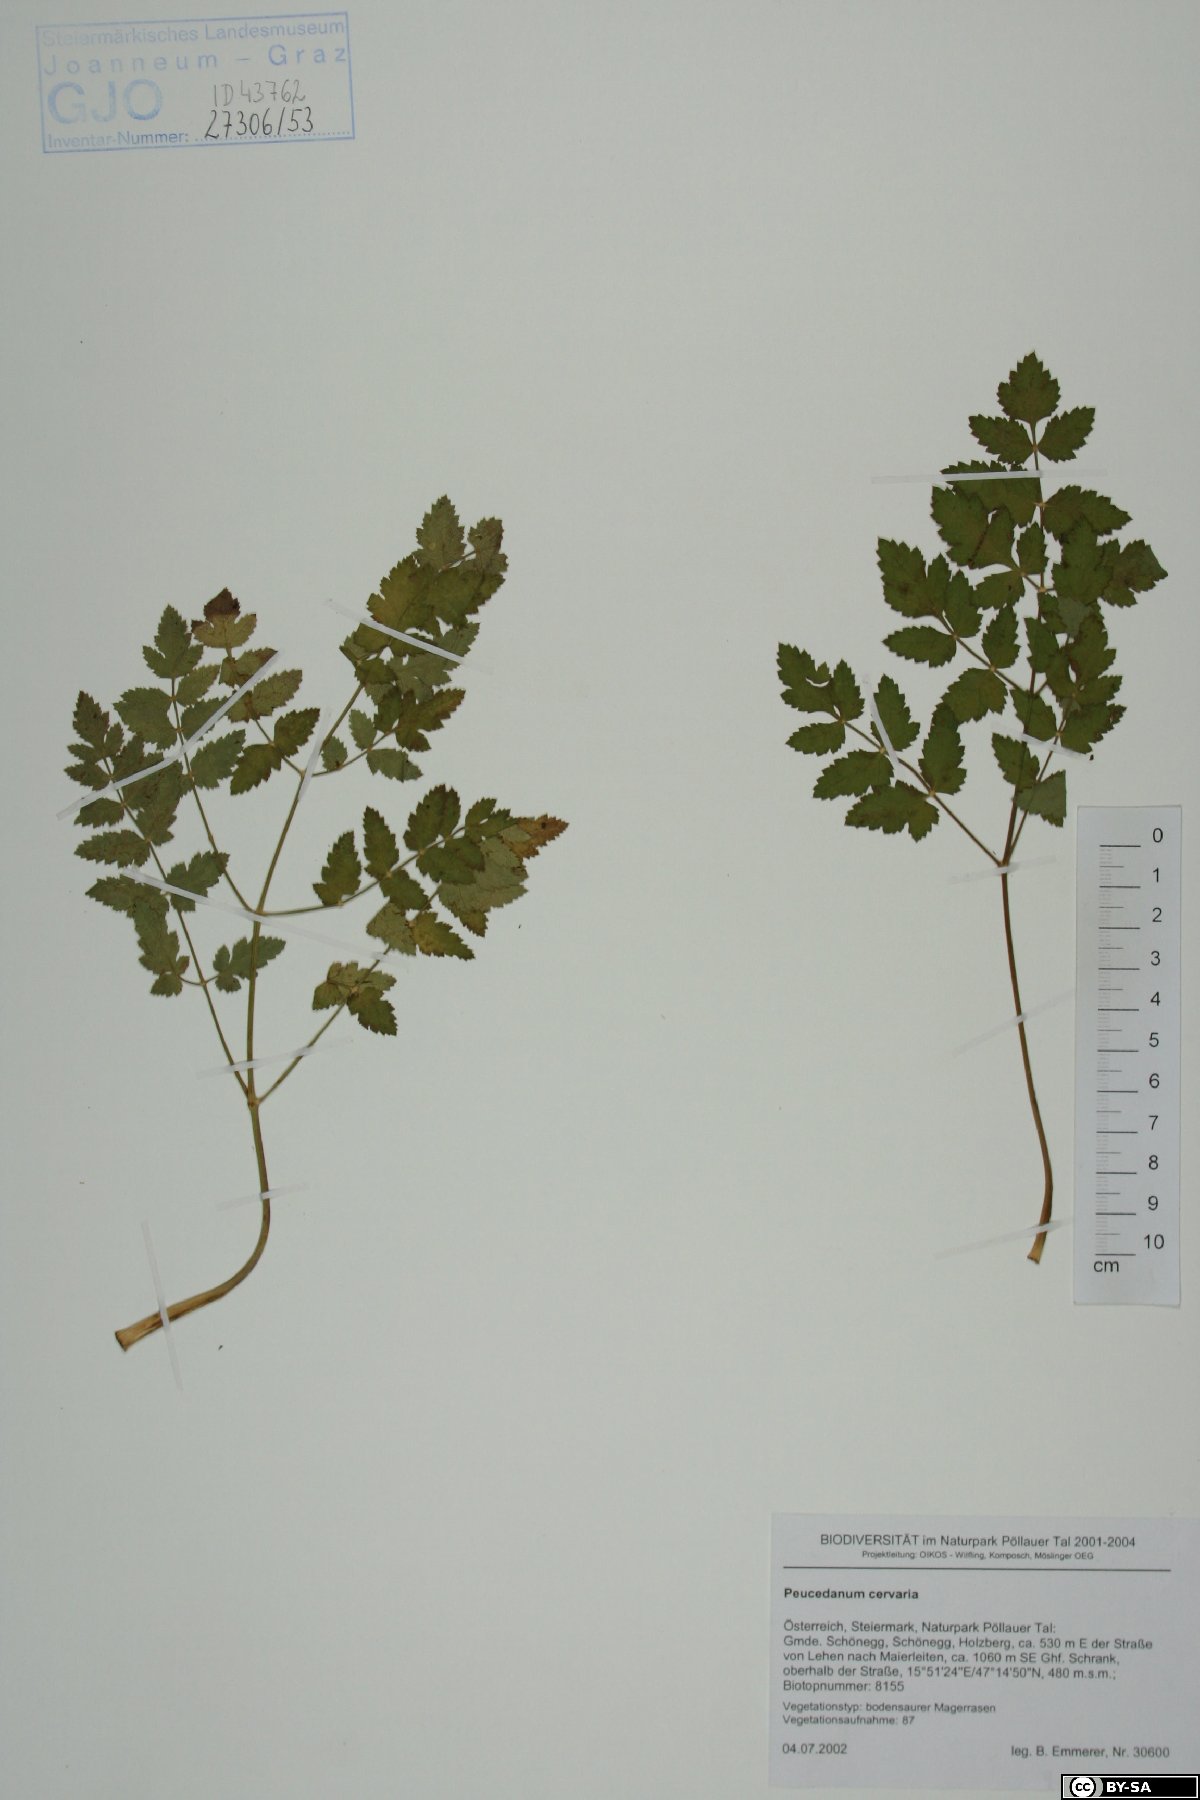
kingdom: Plantae
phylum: Tracheophyta
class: Magnoliopsida
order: Apiales
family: Apiaceae
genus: Cervaria
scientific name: Cervaria rivini
